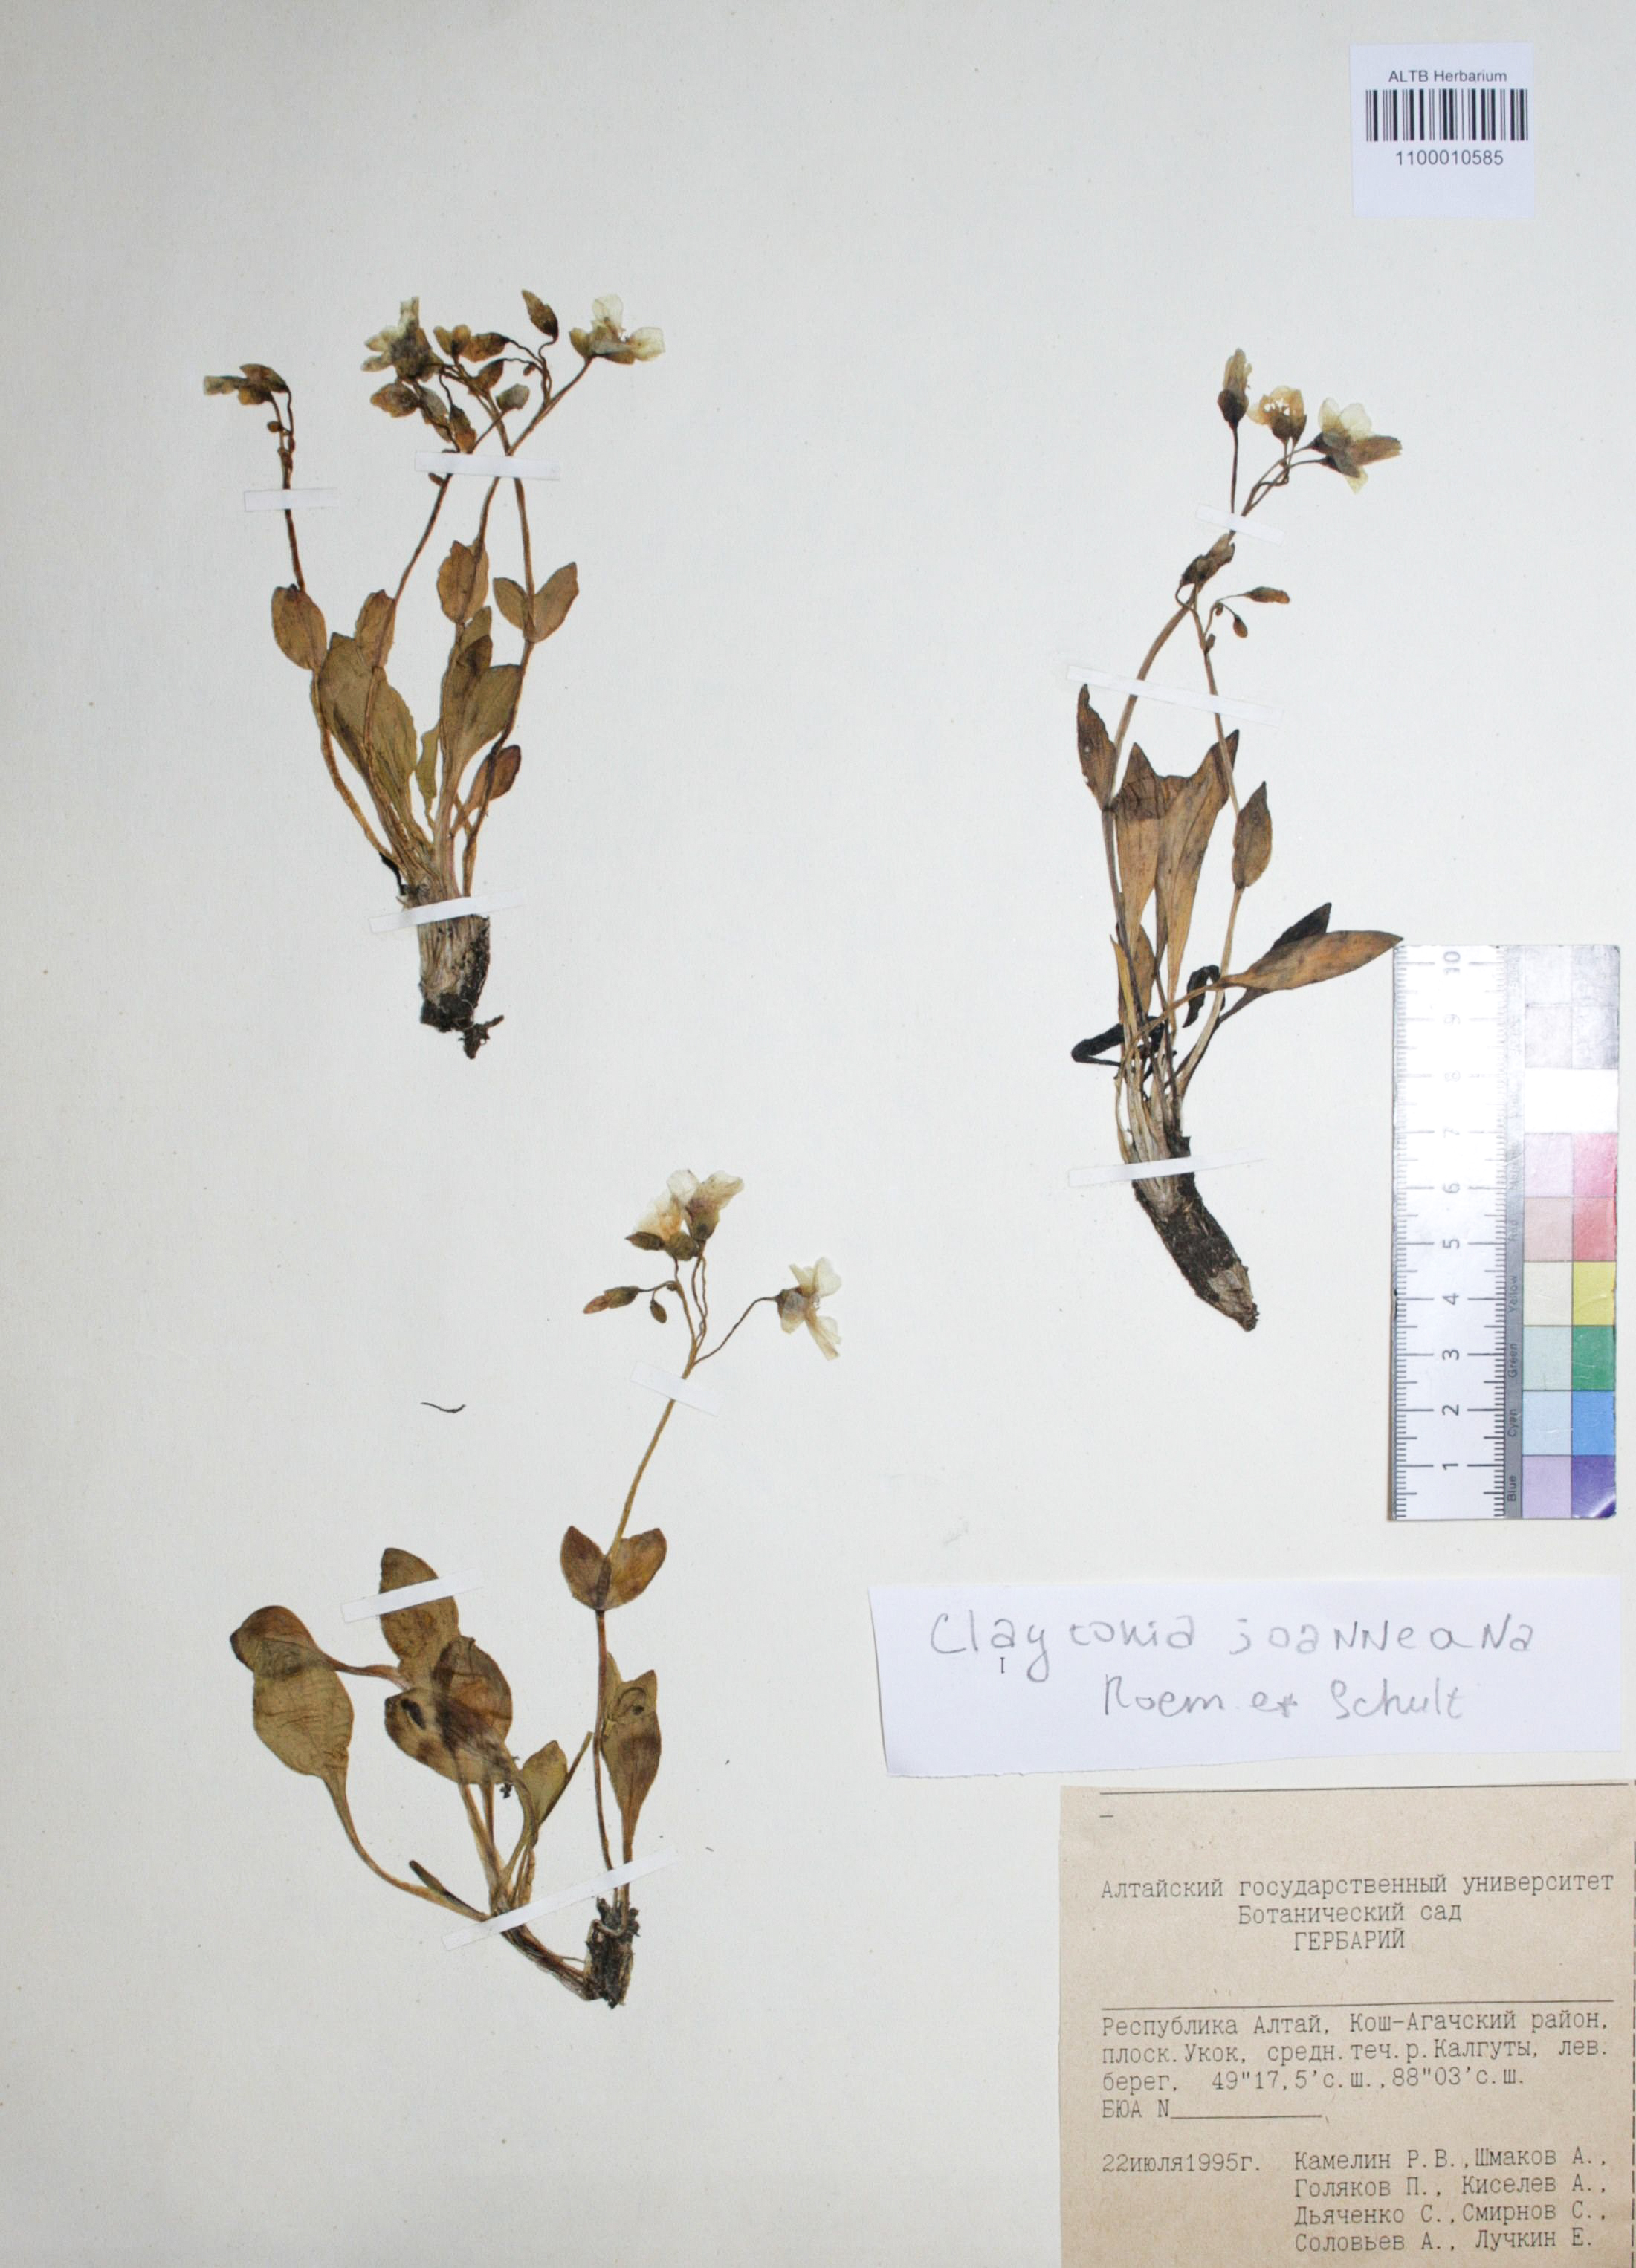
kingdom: Plantae
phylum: Tracheophyta
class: Magnoliopsida
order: Caryophyllales
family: Montiaceae
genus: Claytonia
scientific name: Claytonia joanneana
